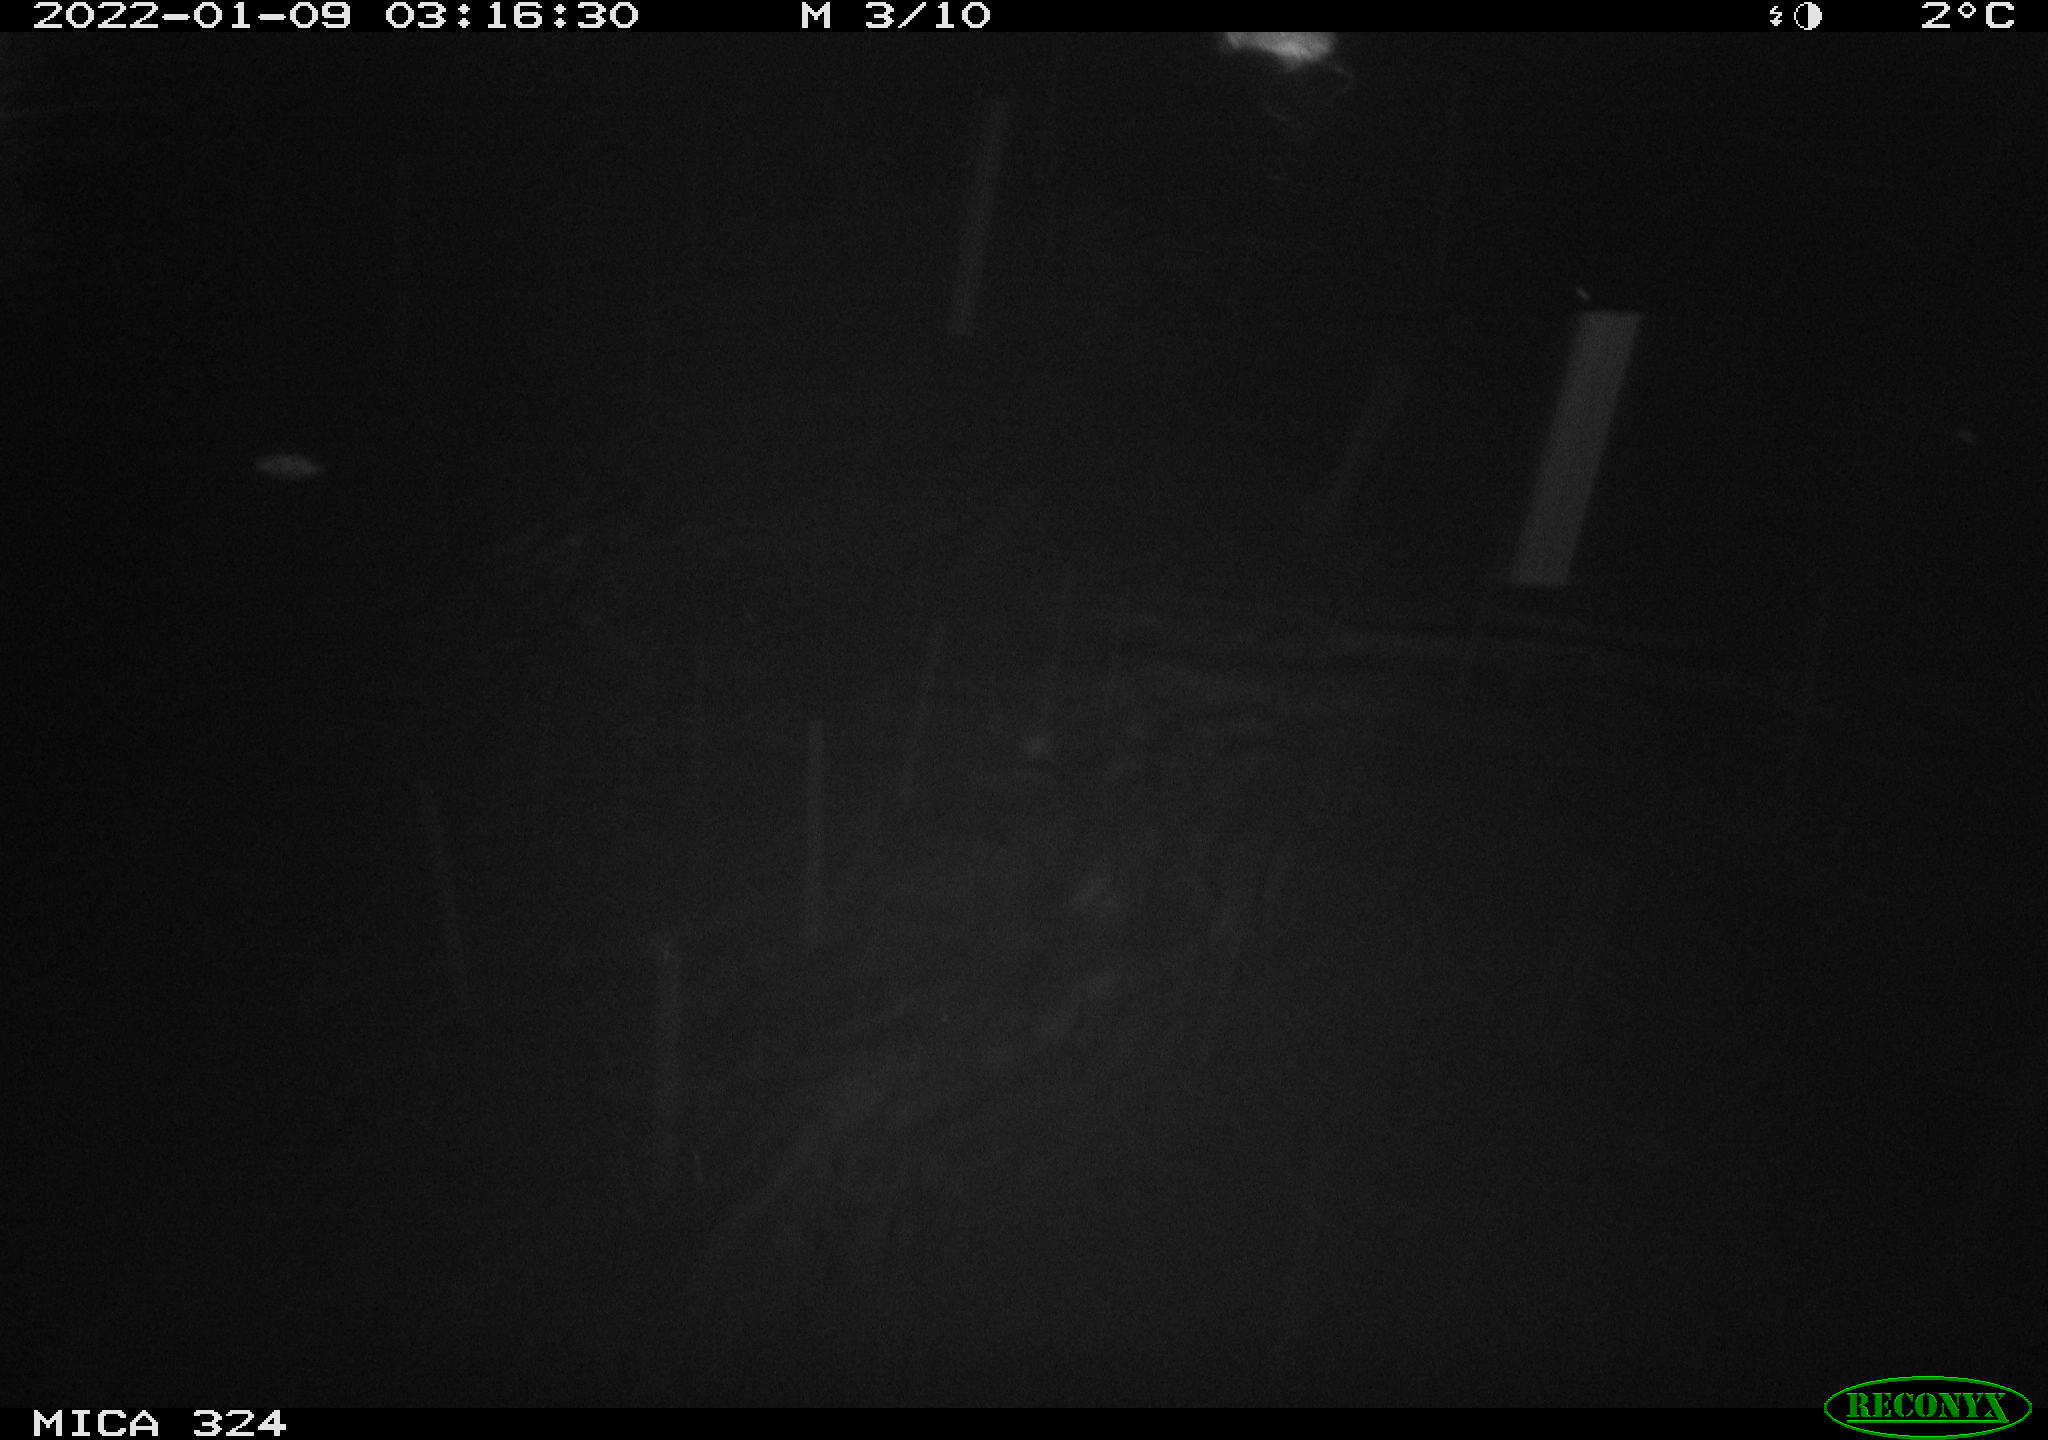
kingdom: Animalia
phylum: Chordata
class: Mammalia
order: Rodentia
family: Cricetidae
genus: Ondatra
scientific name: Ondatra zibethicus
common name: Muskrat
